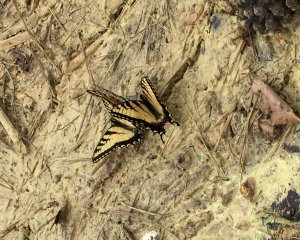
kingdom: Animalia
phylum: Arthropoda
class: Insecta
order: Lepidoptera
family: Papilionidae
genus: Pterourus
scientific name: Pterourus glaucus
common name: Eastern Tiger Swallowtail
